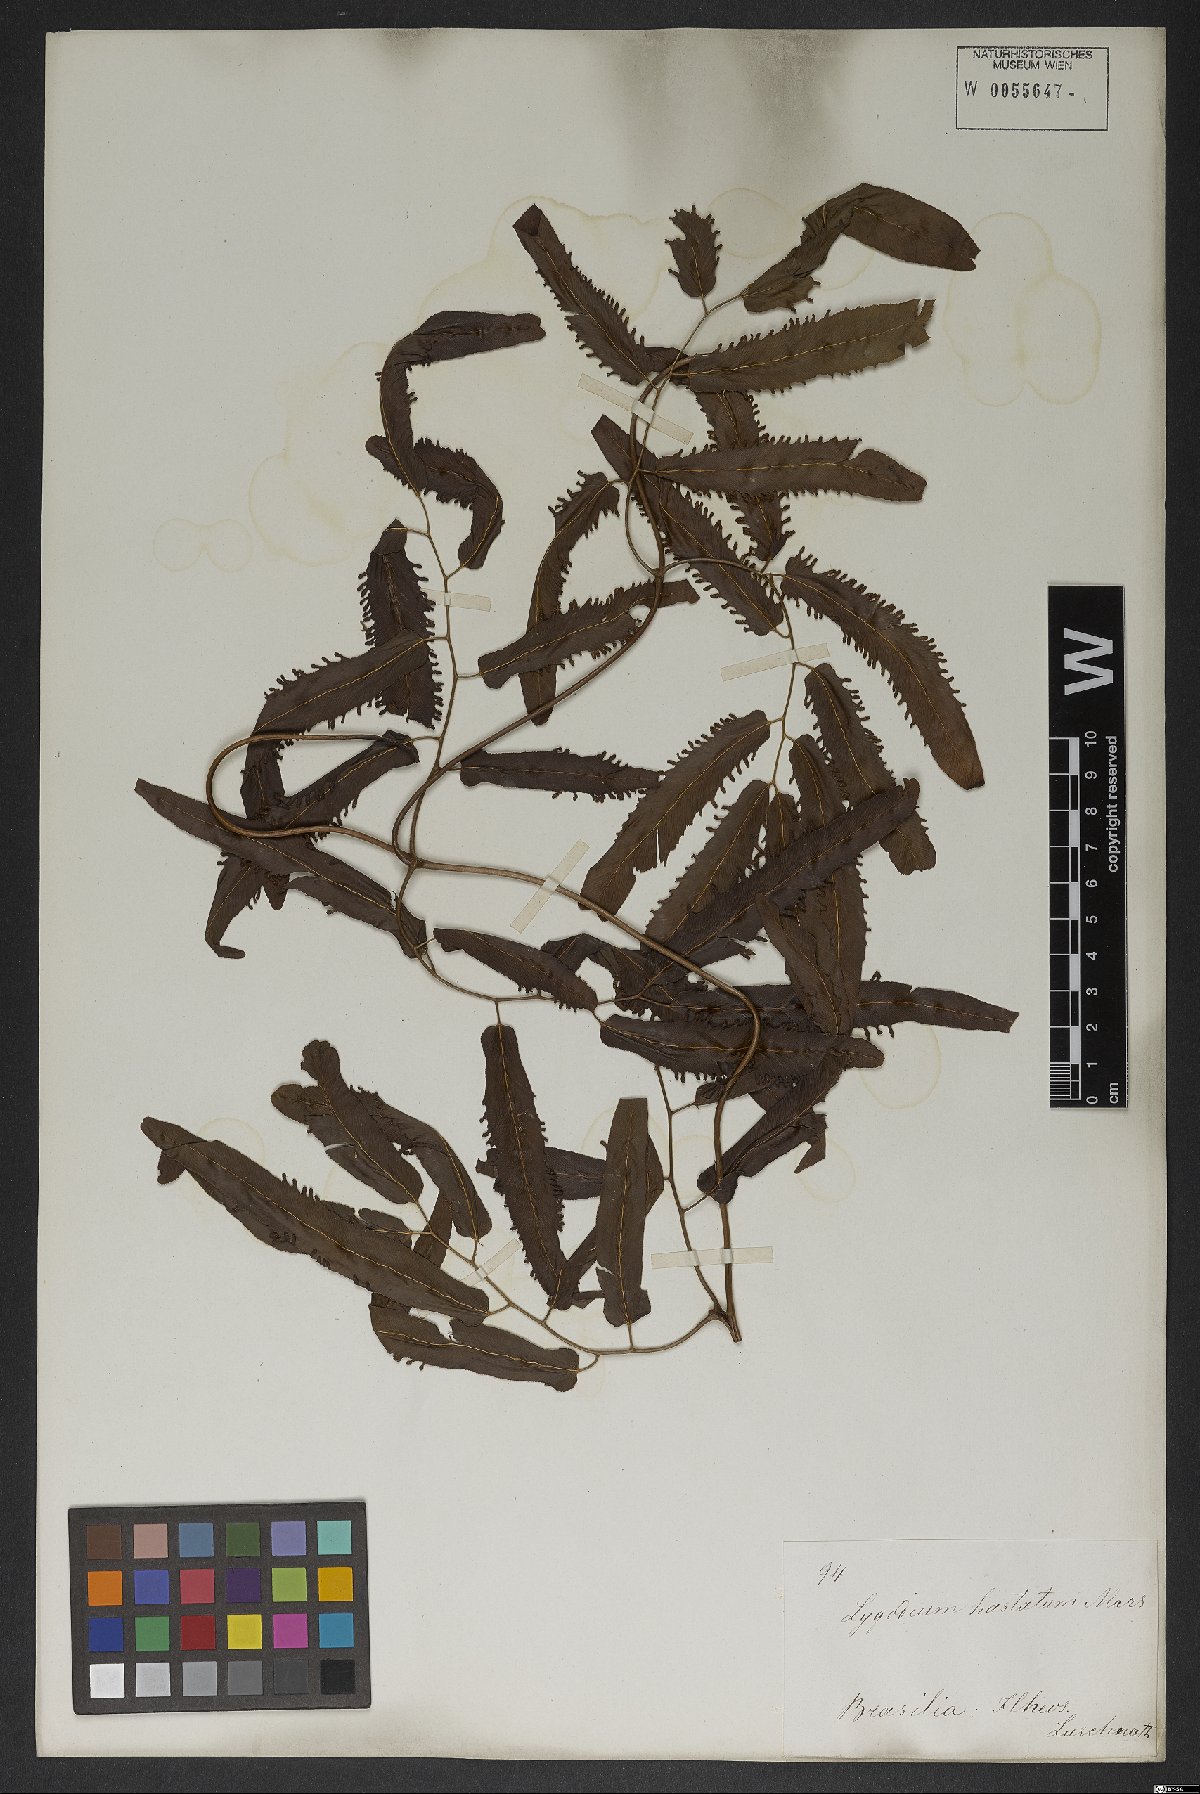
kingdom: Plantae
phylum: Tracheophyta
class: Polypodiopsida
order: Schizaeales
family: Lygodiaceae
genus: Lygodium
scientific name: Lygodium volubile
